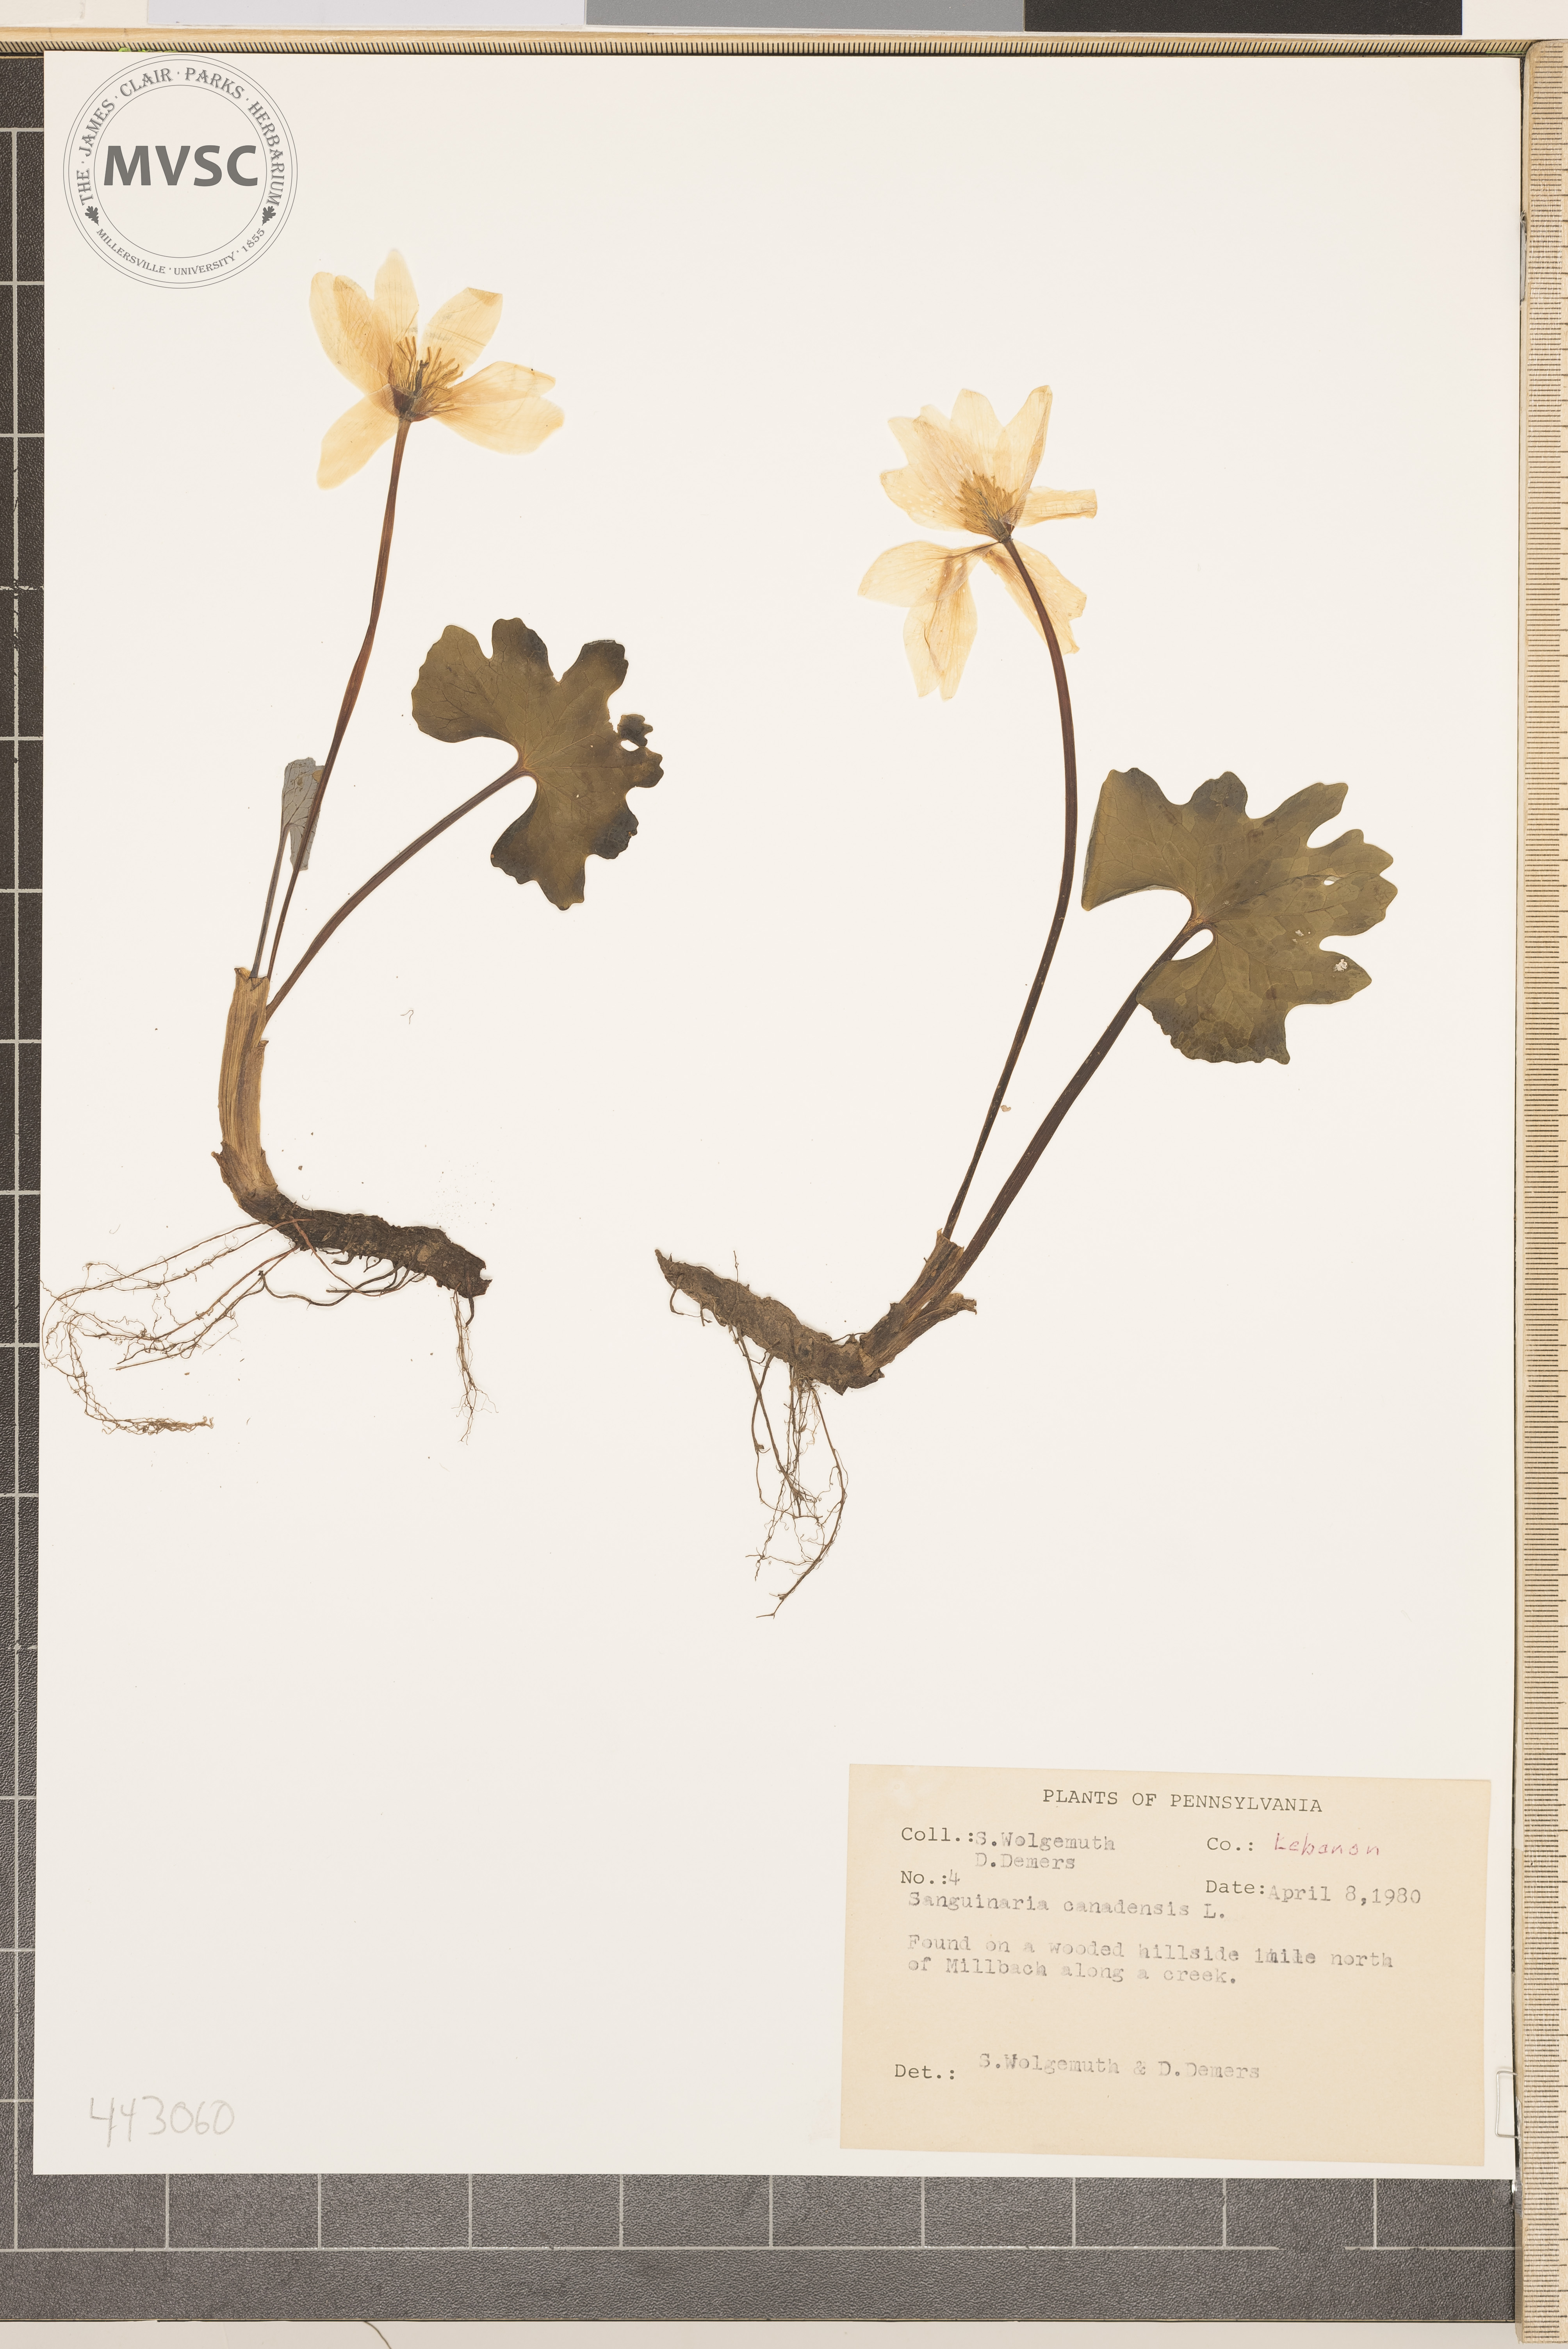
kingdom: Plantae
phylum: Tracheophyta
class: Magnoliopsida
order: Ranunculales
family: Papaveraceae
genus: Sanguinaria
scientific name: Sanguinaria canadensis
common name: Bloodroot
